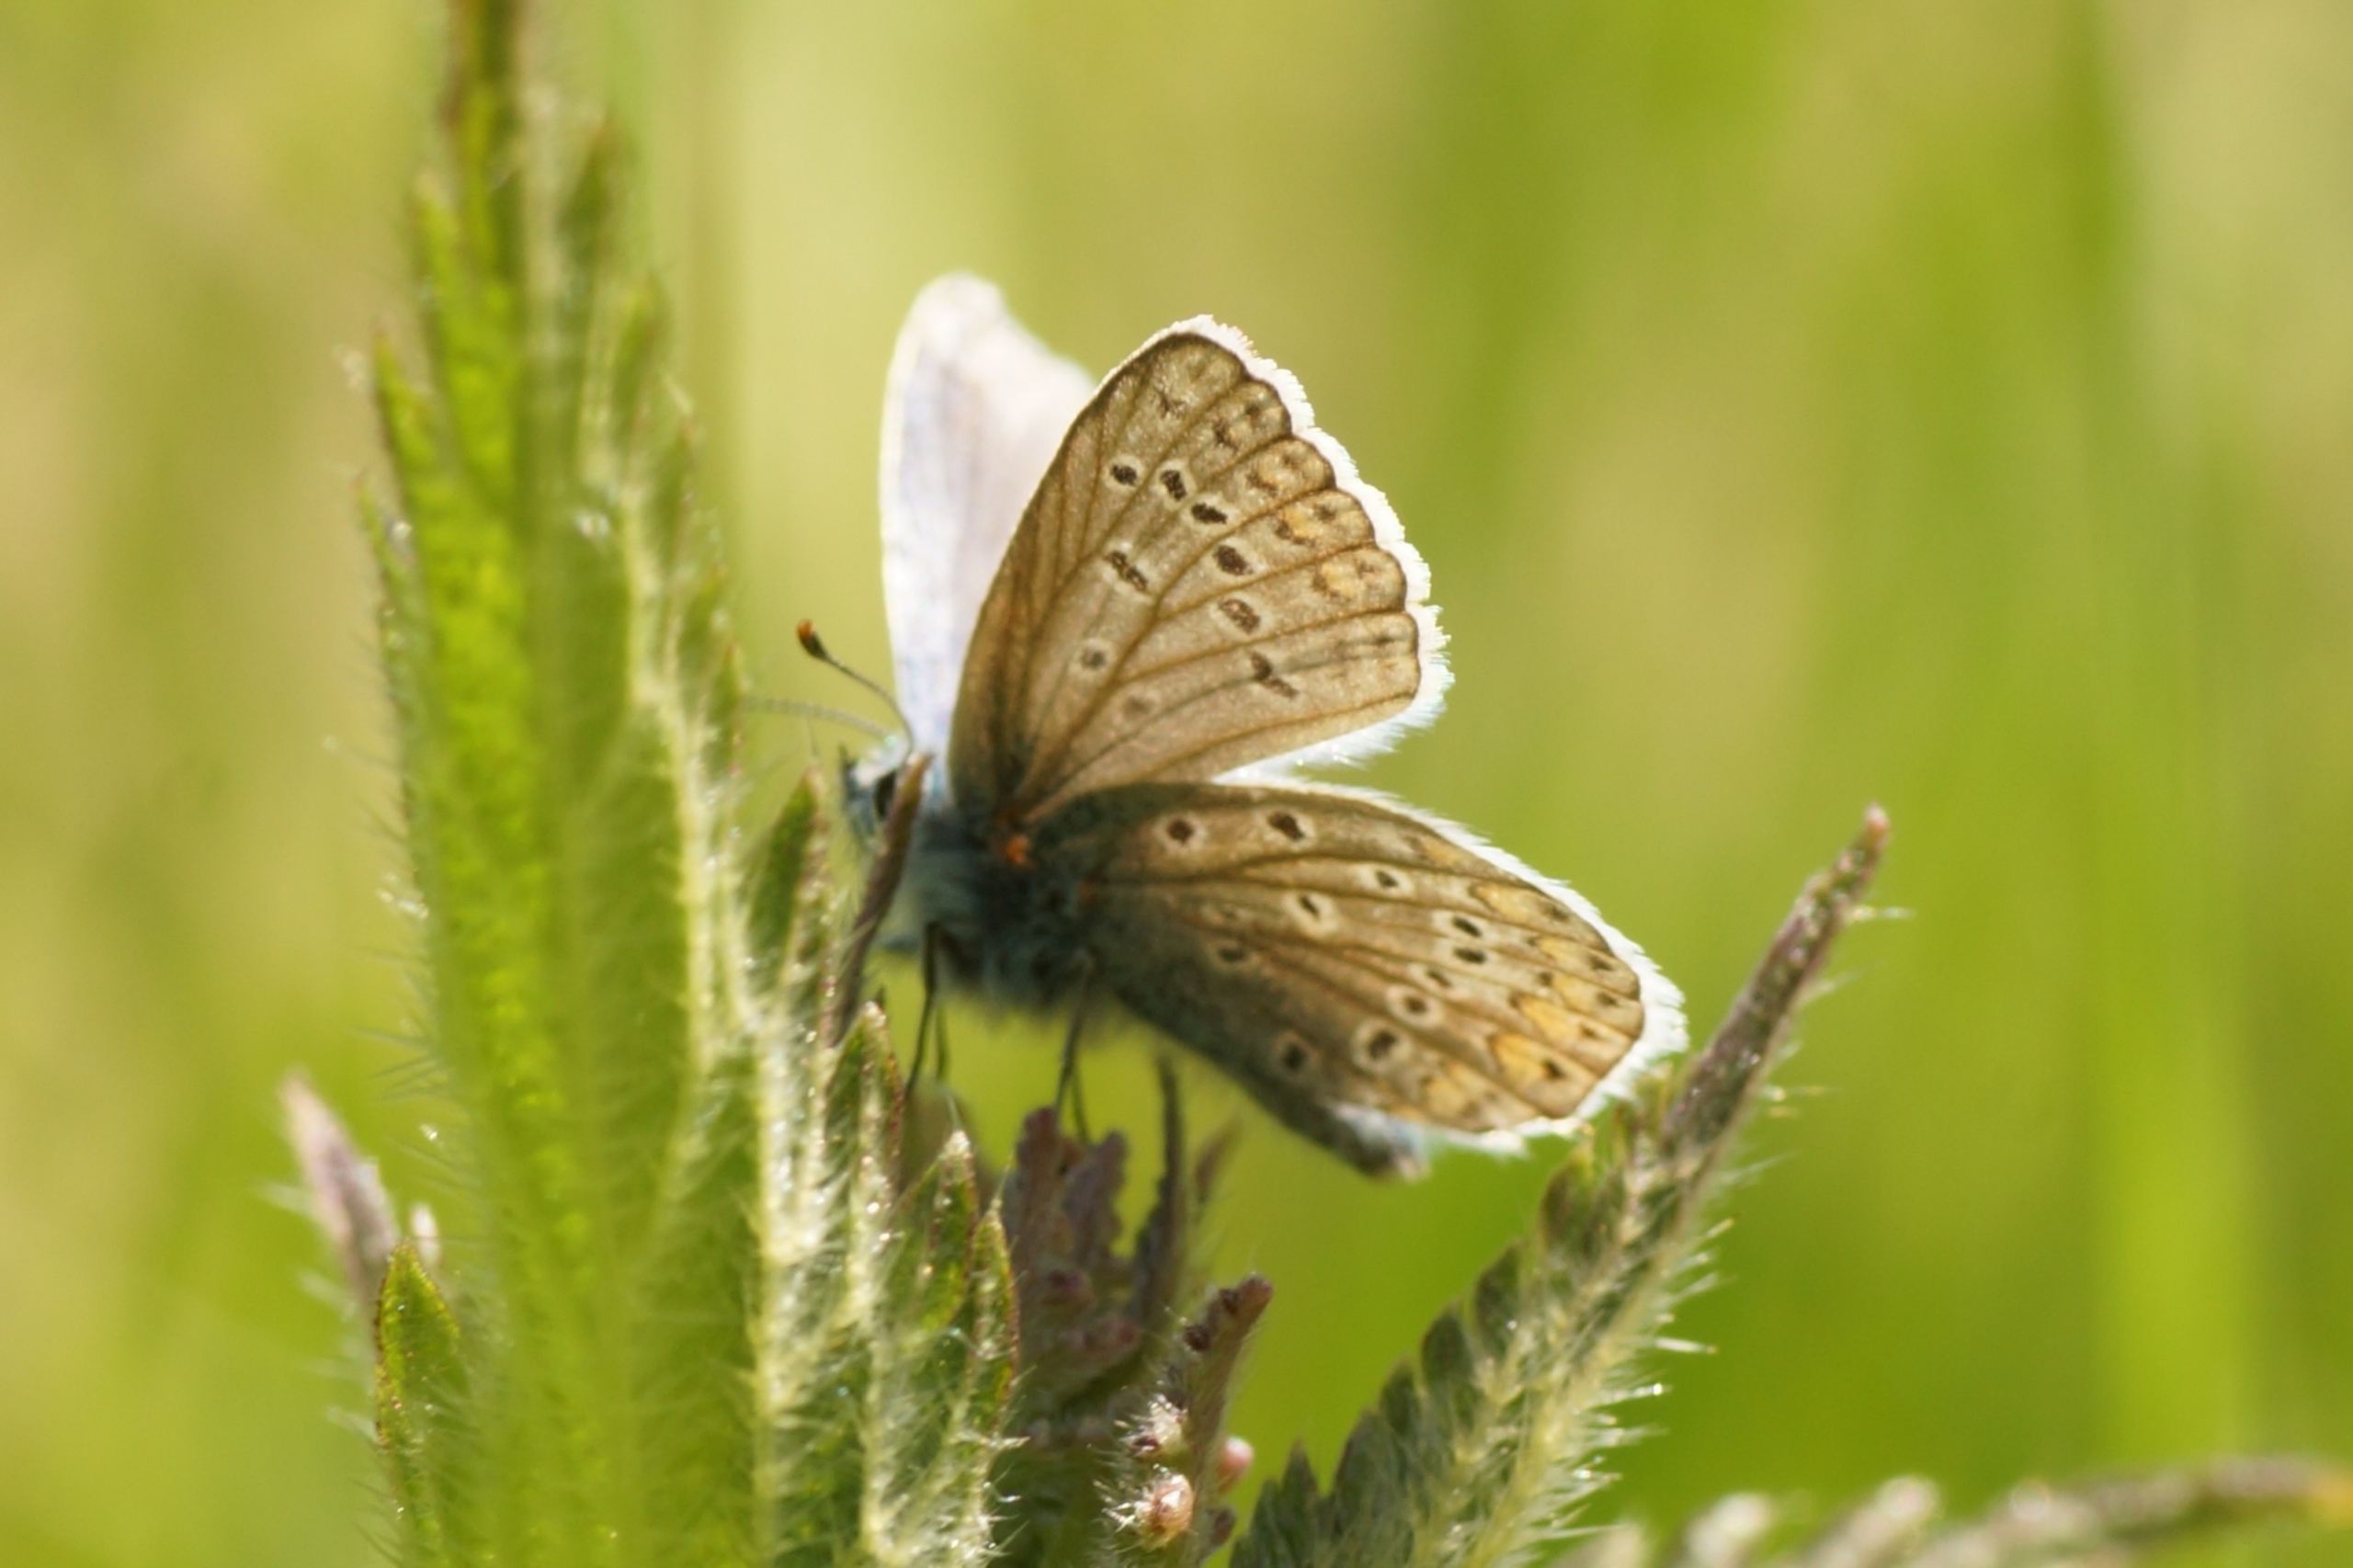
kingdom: Animalia
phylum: Arthropoda
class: Insecta
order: Lepidoptera
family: Lycaenidae
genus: Polyommatus
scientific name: Polyommatus icarus
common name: Almindelig blåfugl
